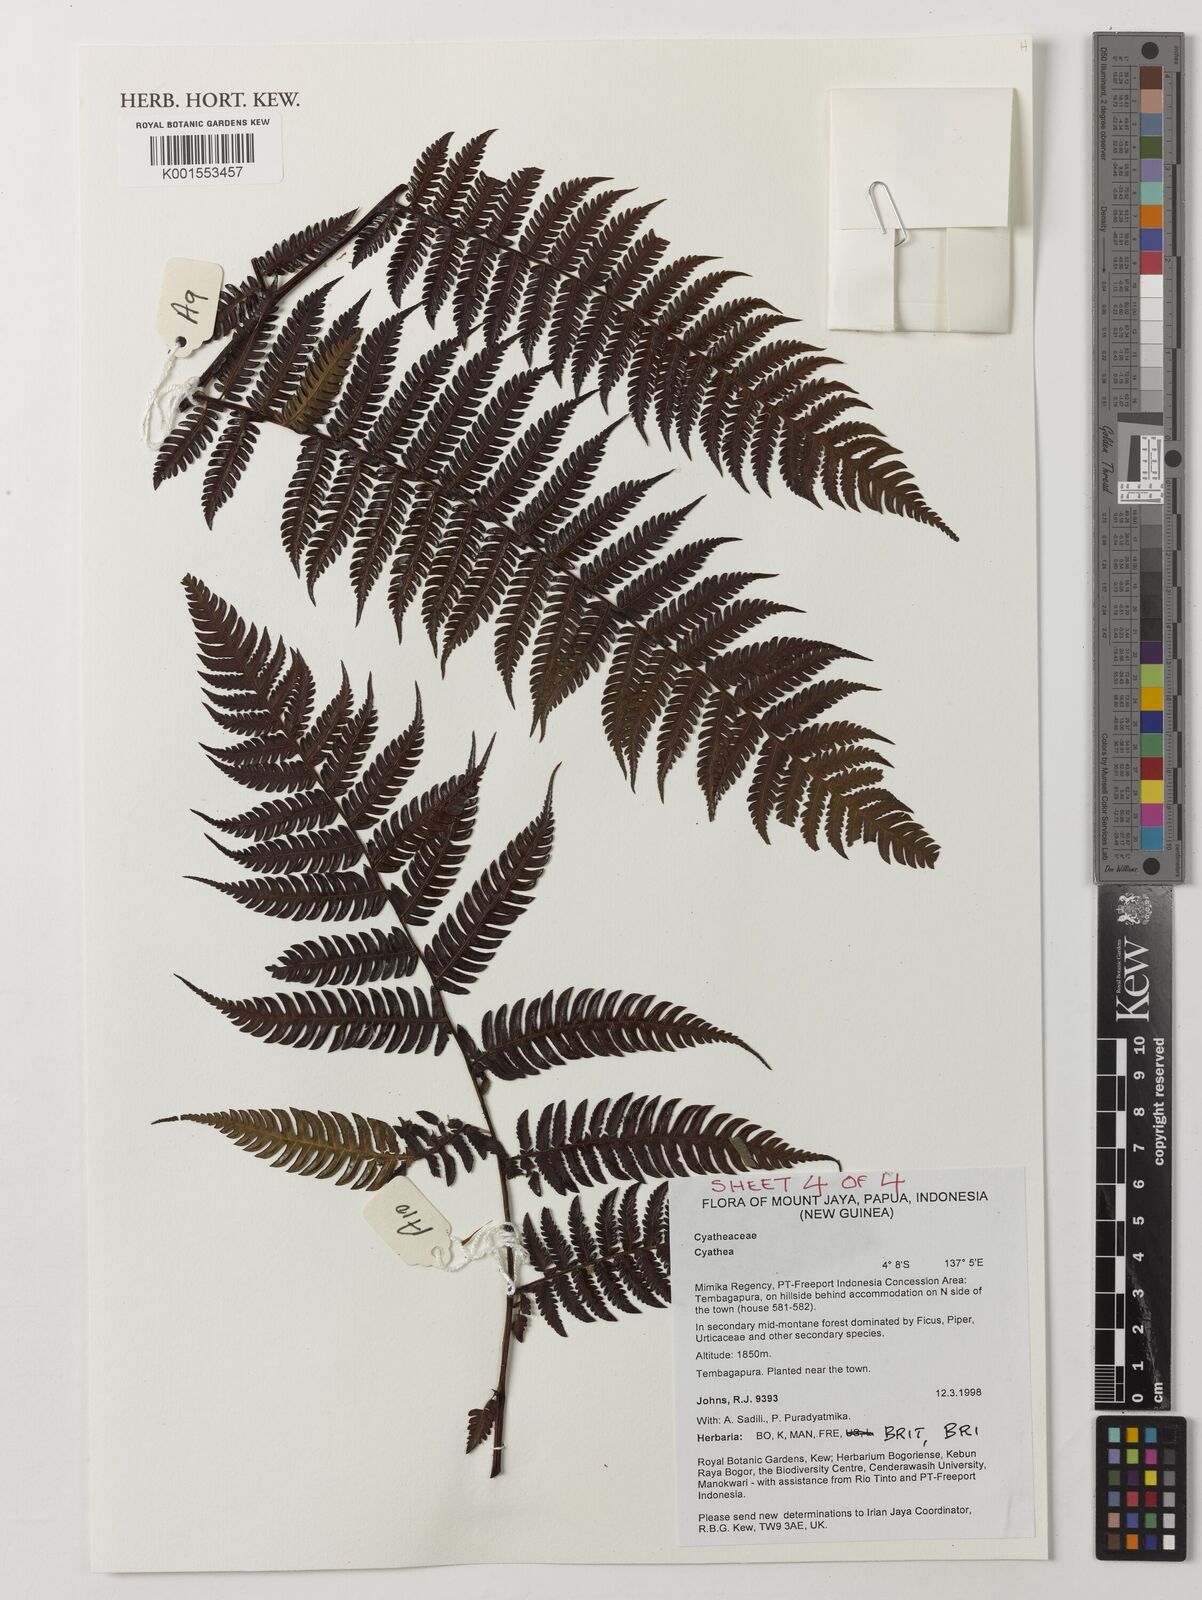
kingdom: Plantae
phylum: Tracheophyta
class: Polypodiopsida
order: Cyatheales
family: Cyatheaceae
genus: Cyathea
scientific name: Cyathea
